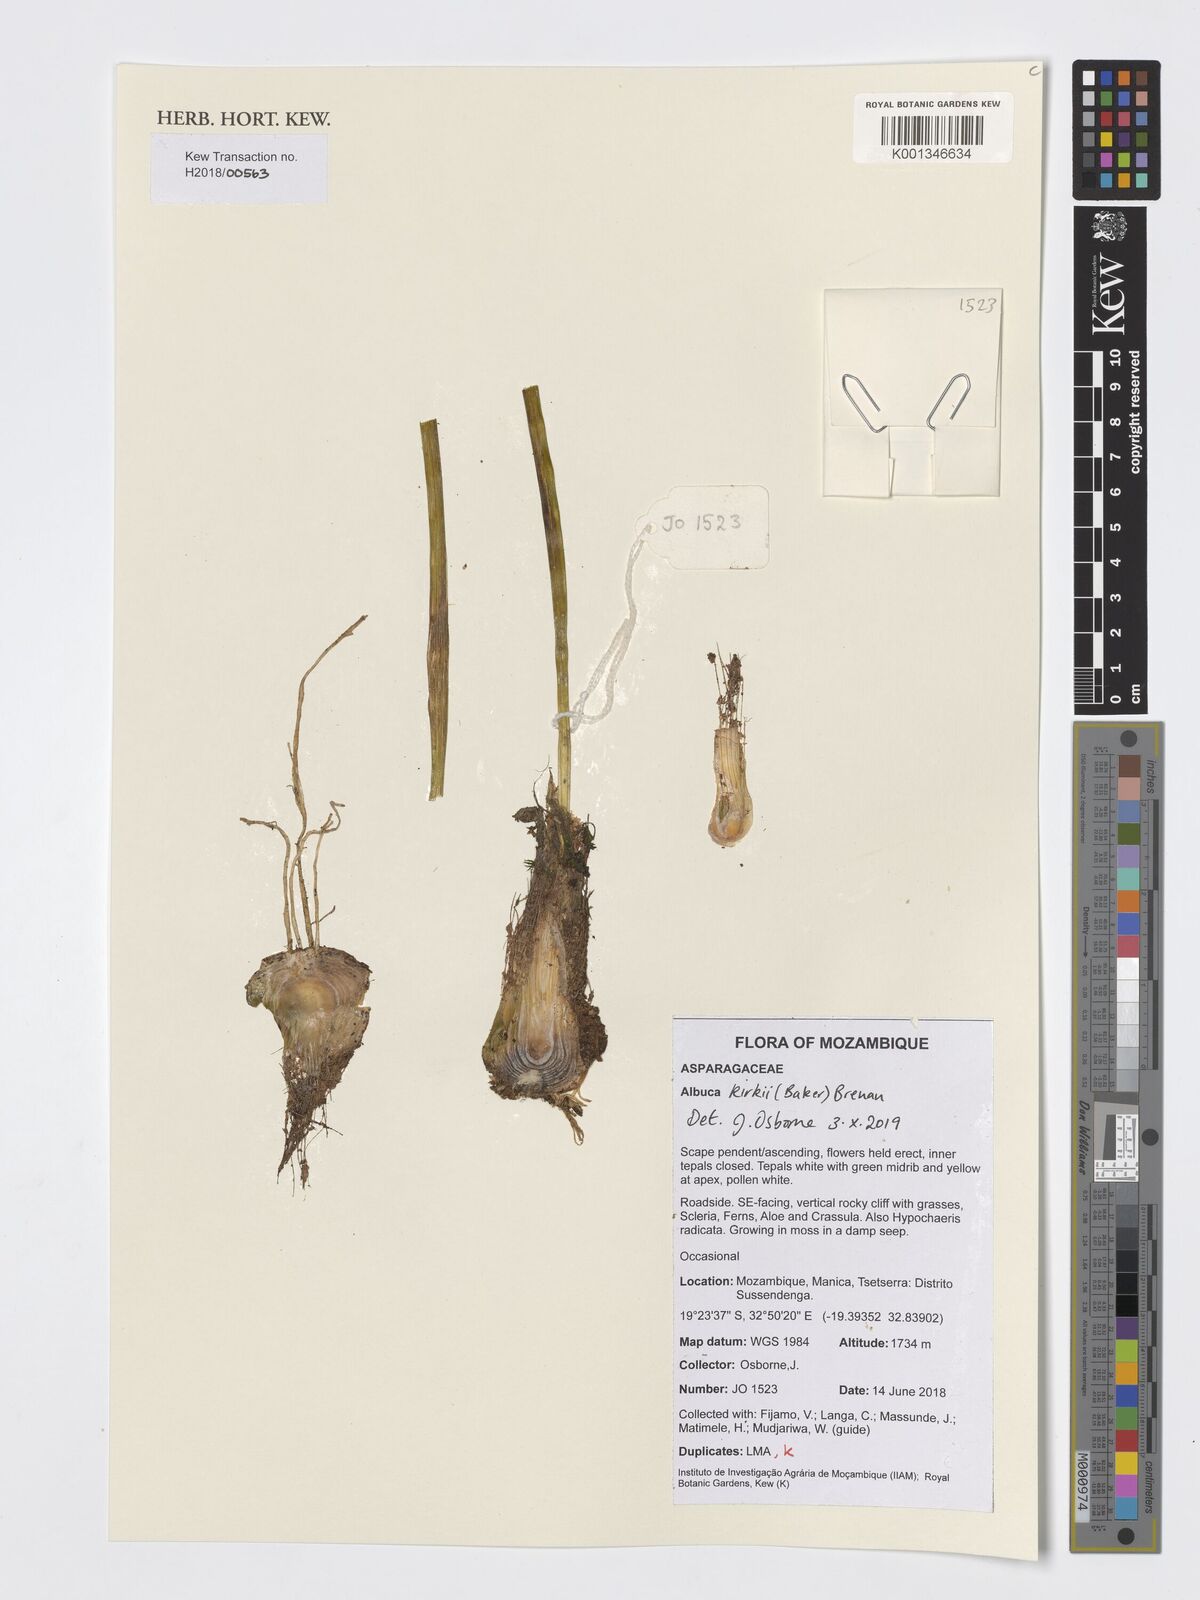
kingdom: Plantae
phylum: Tracheophyta
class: Liliopsida
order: Asparagales
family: Asparagaceae
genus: Albuca
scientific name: Albuca kirkii
